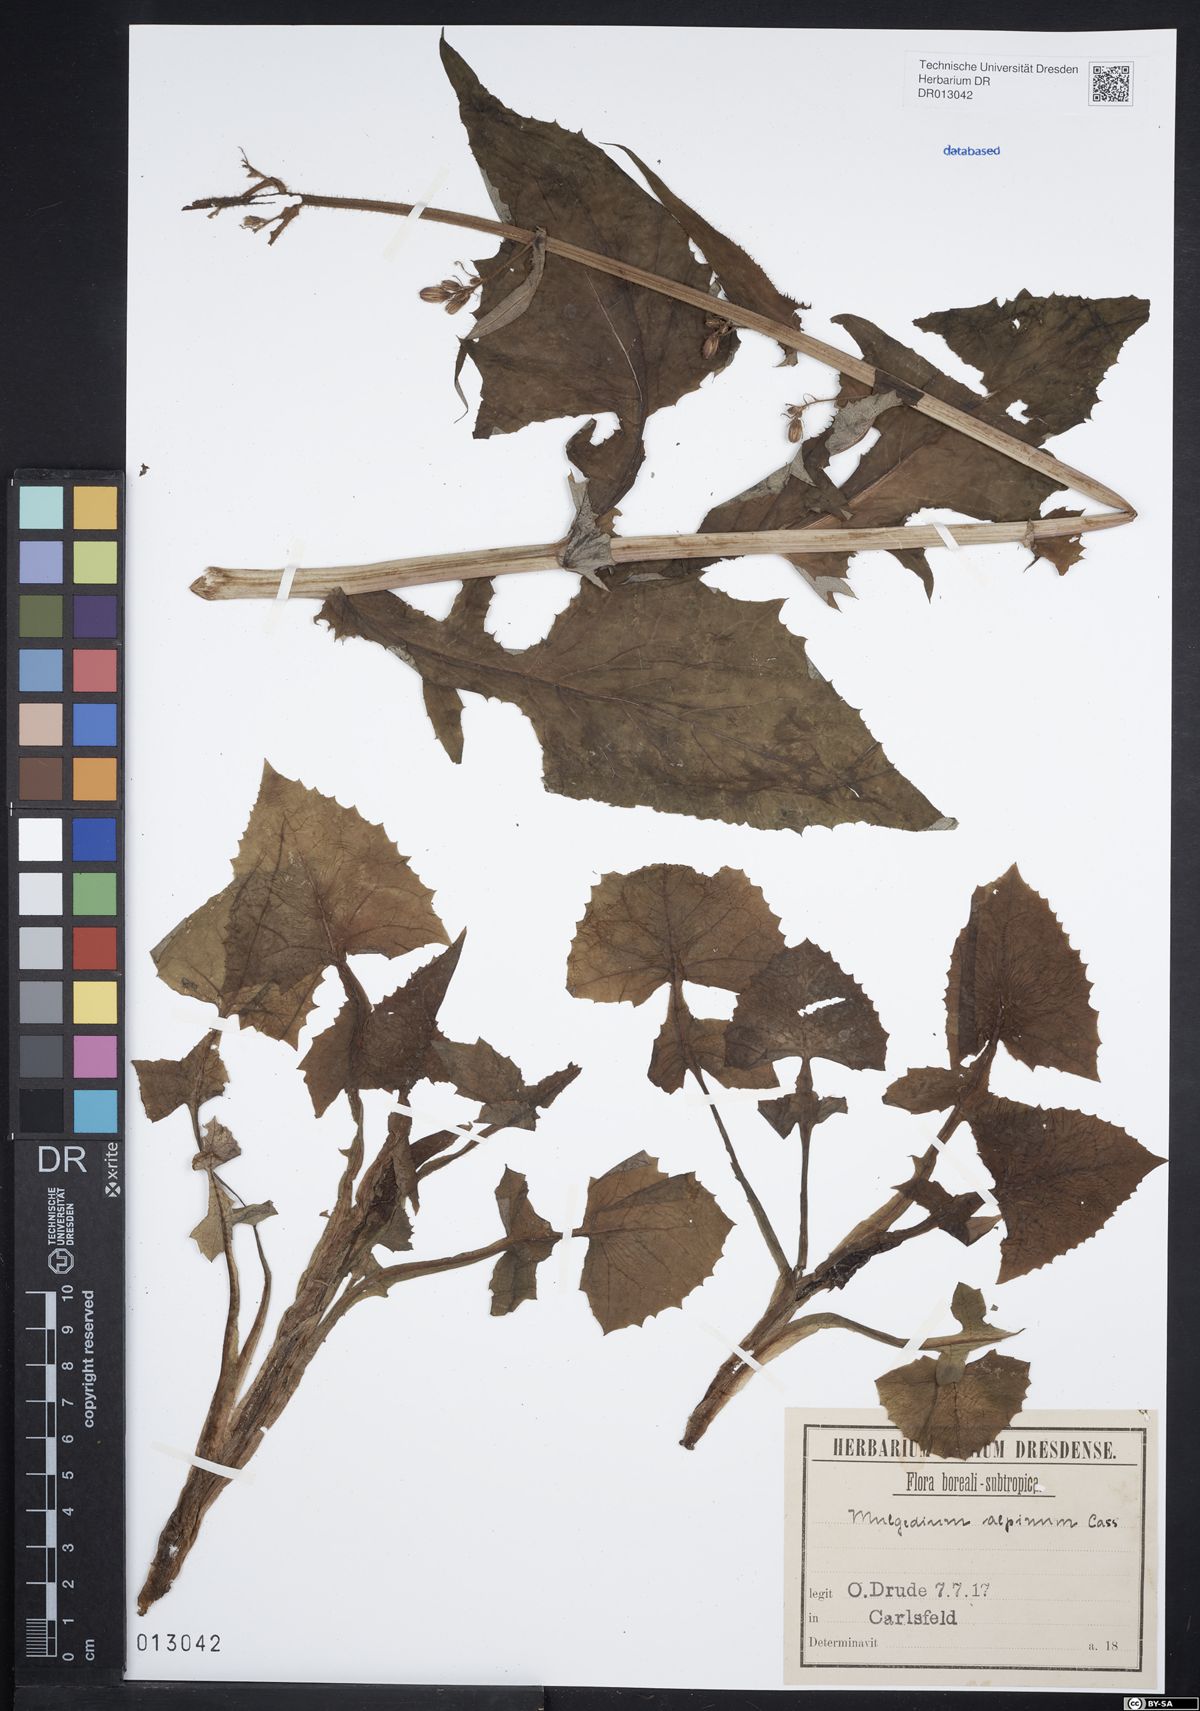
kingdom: Plantae
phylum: Tracheophyta
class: Magnoliopsida
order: Asterales
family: Asteraceae
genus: Cicerbita
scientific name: Cicerbita alpina
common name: Alpine blue-sow-thistle
